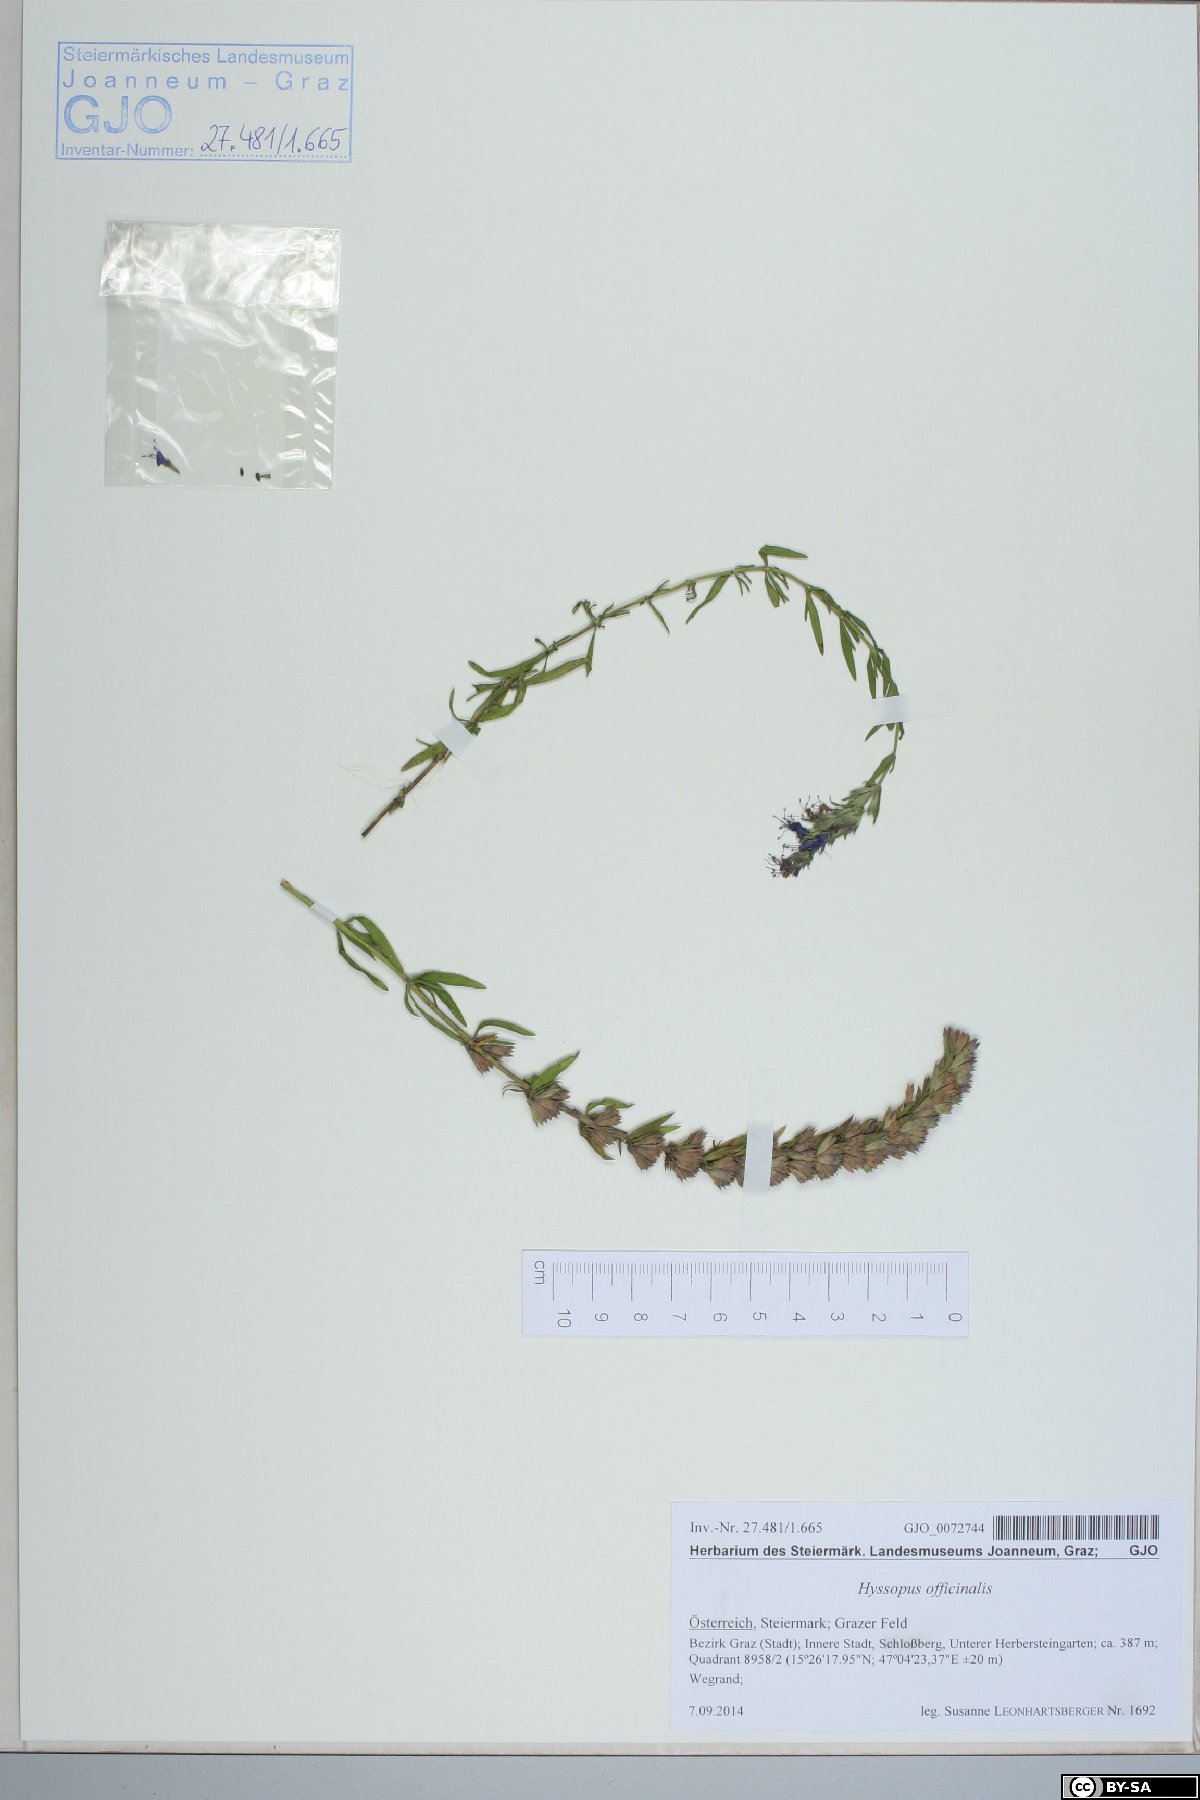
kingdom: Plantae
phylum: Tracheophyta
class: Magnoliopsida
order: Lamiales
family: Lamiaceae
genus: Hyssopus
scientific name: Hyssopus officinalis
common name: Hyssop
